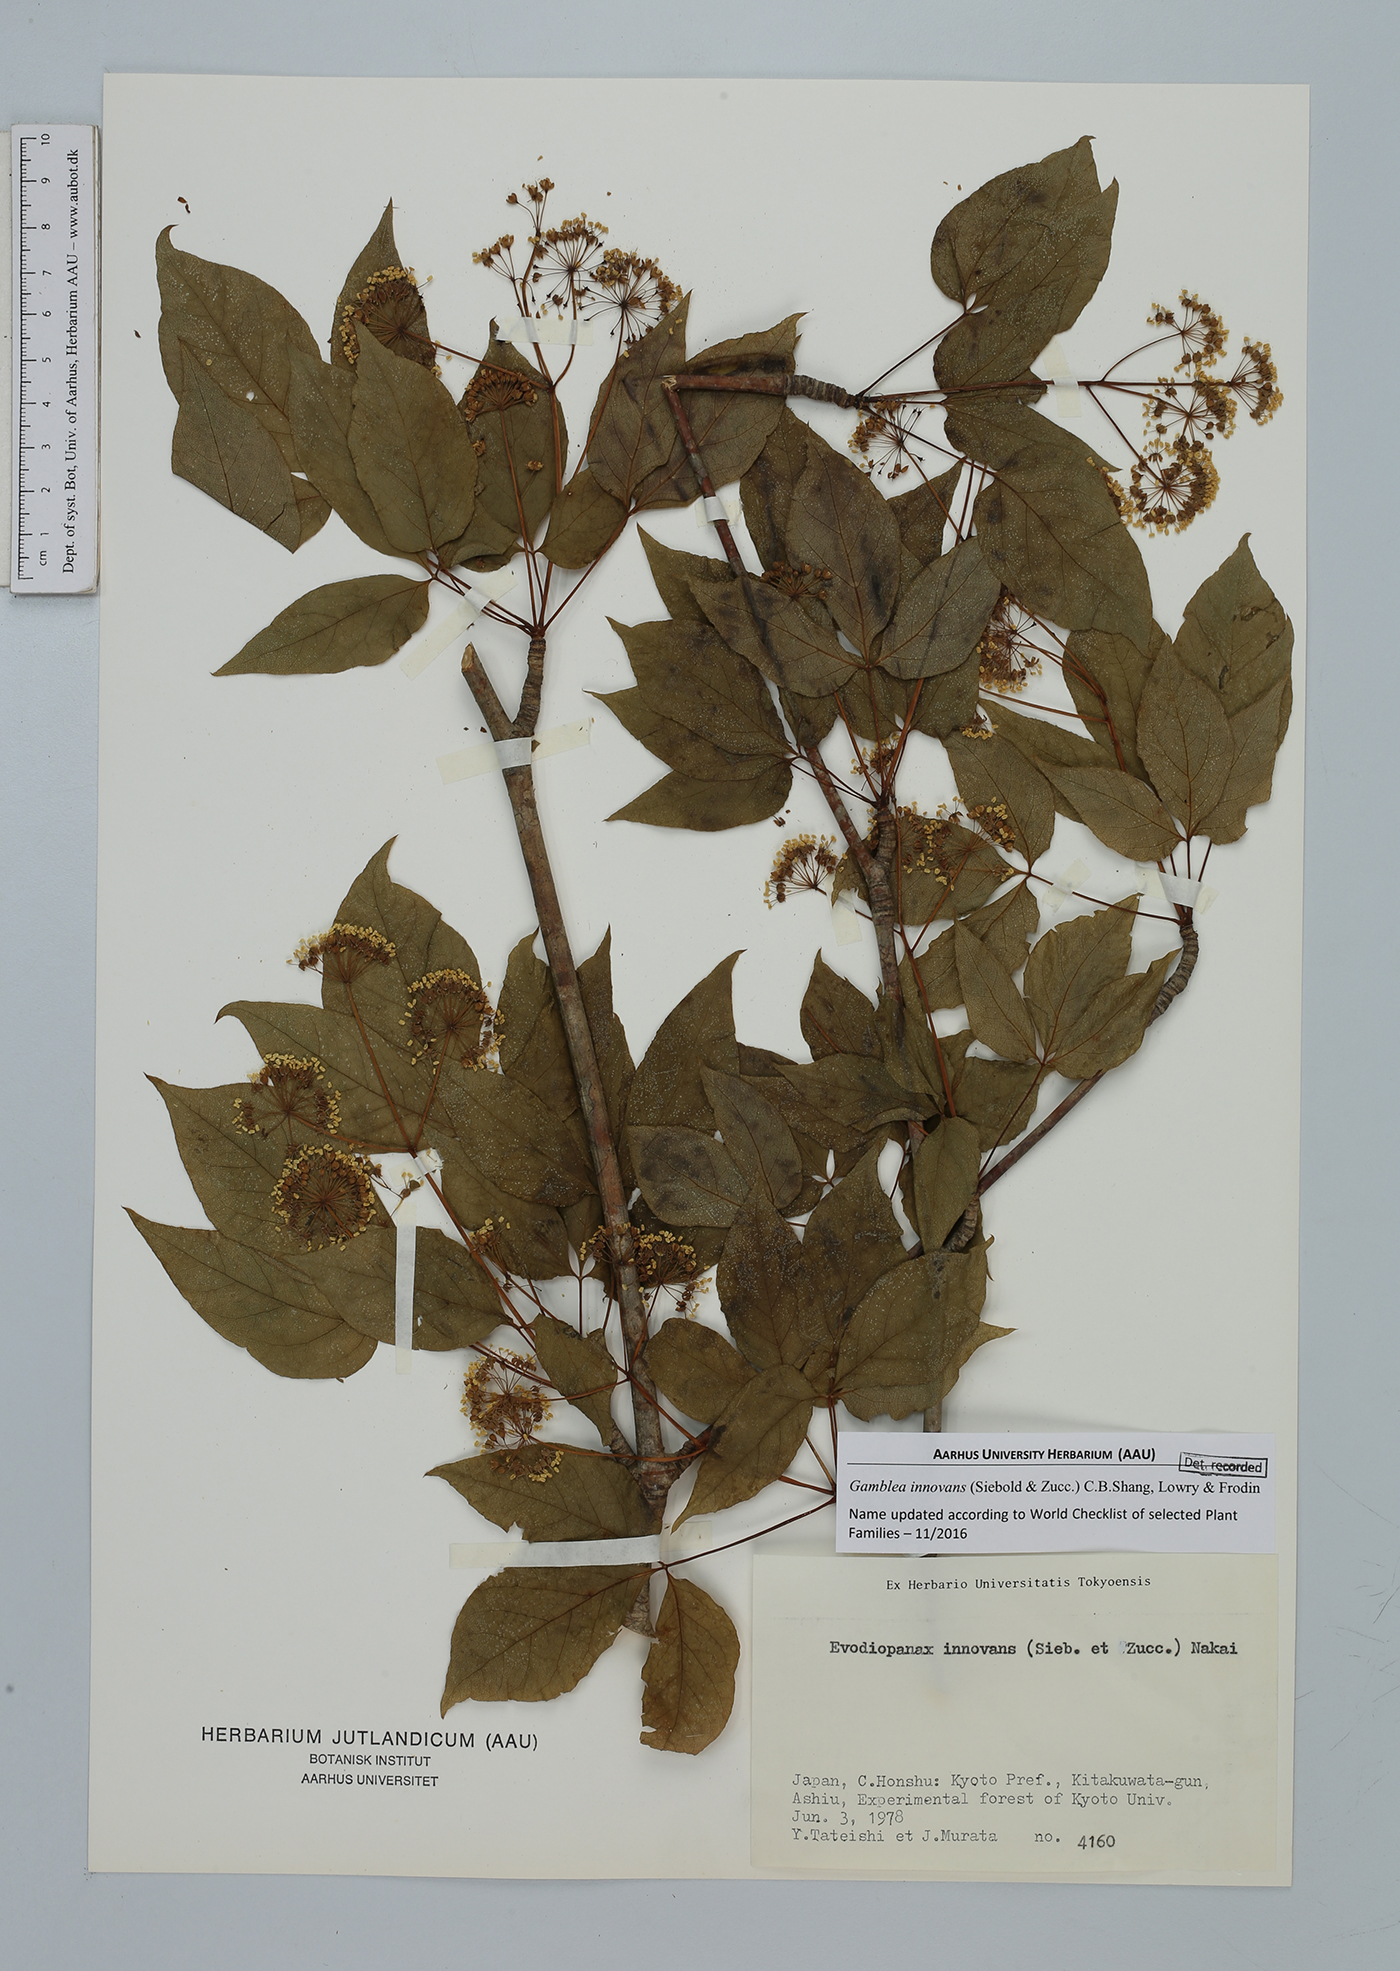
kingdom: Plantae
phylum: Tracheophyta
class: Magnoliopsida
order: Apiales
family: Araliaceae
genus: Gamblea
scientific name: Gamblea innovans
